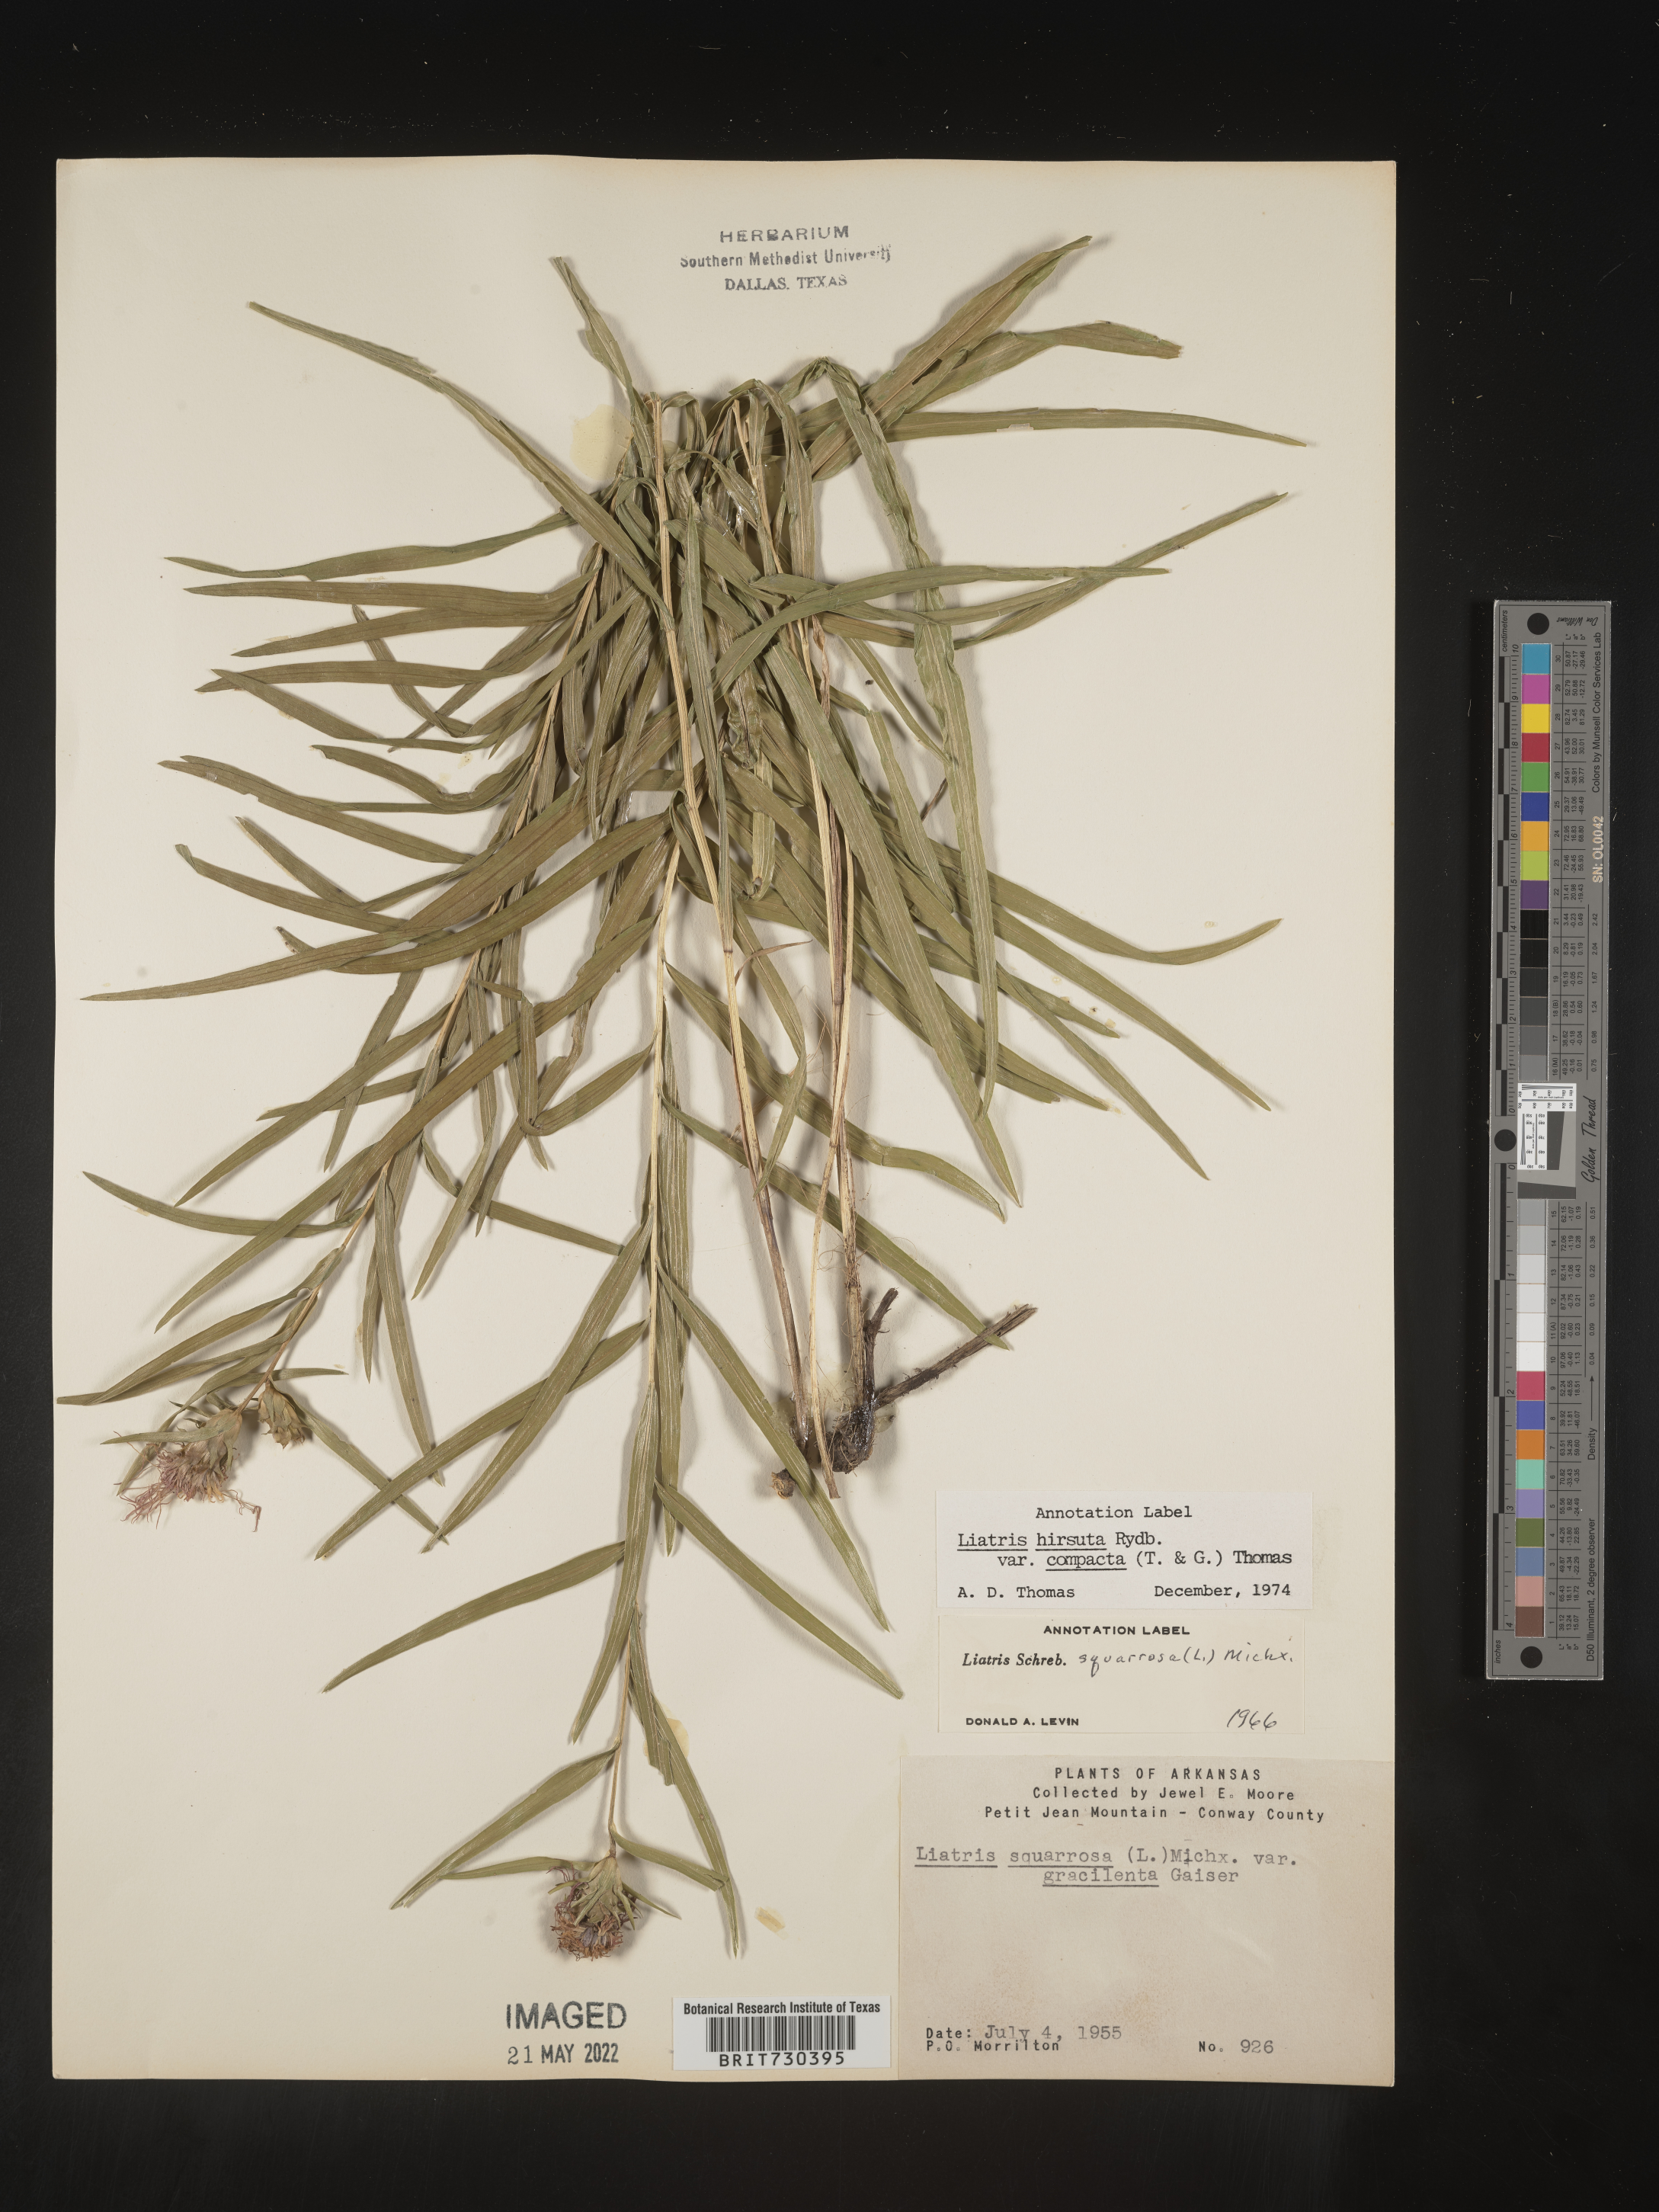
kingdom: Plantae
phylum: Tracheophyta
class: Magnoliopsida
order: Asterales
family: Asteraceae
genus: Liatris
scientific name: Liatris compacta
